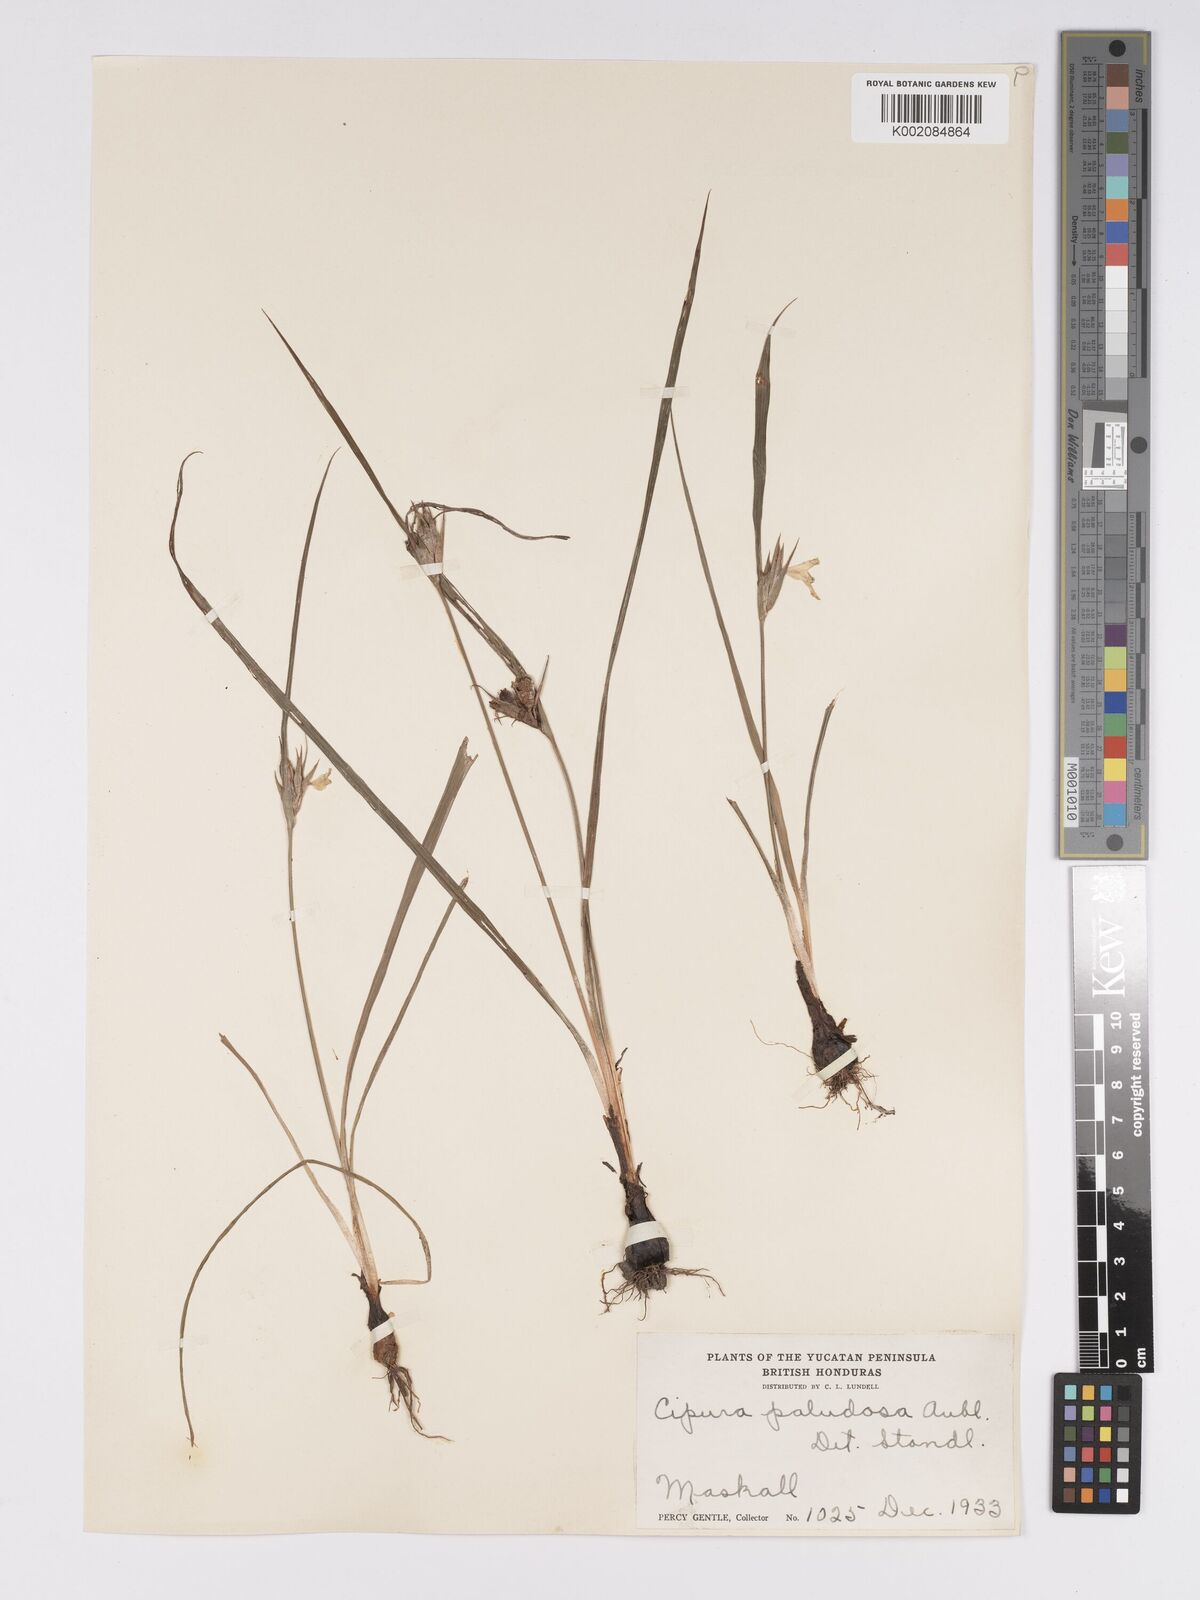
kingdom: Plantae
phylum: Tracheophyta
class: Liliopsida
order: Asparagales
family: Iridaceae
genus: Cipura
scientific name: Cipura paludosa
